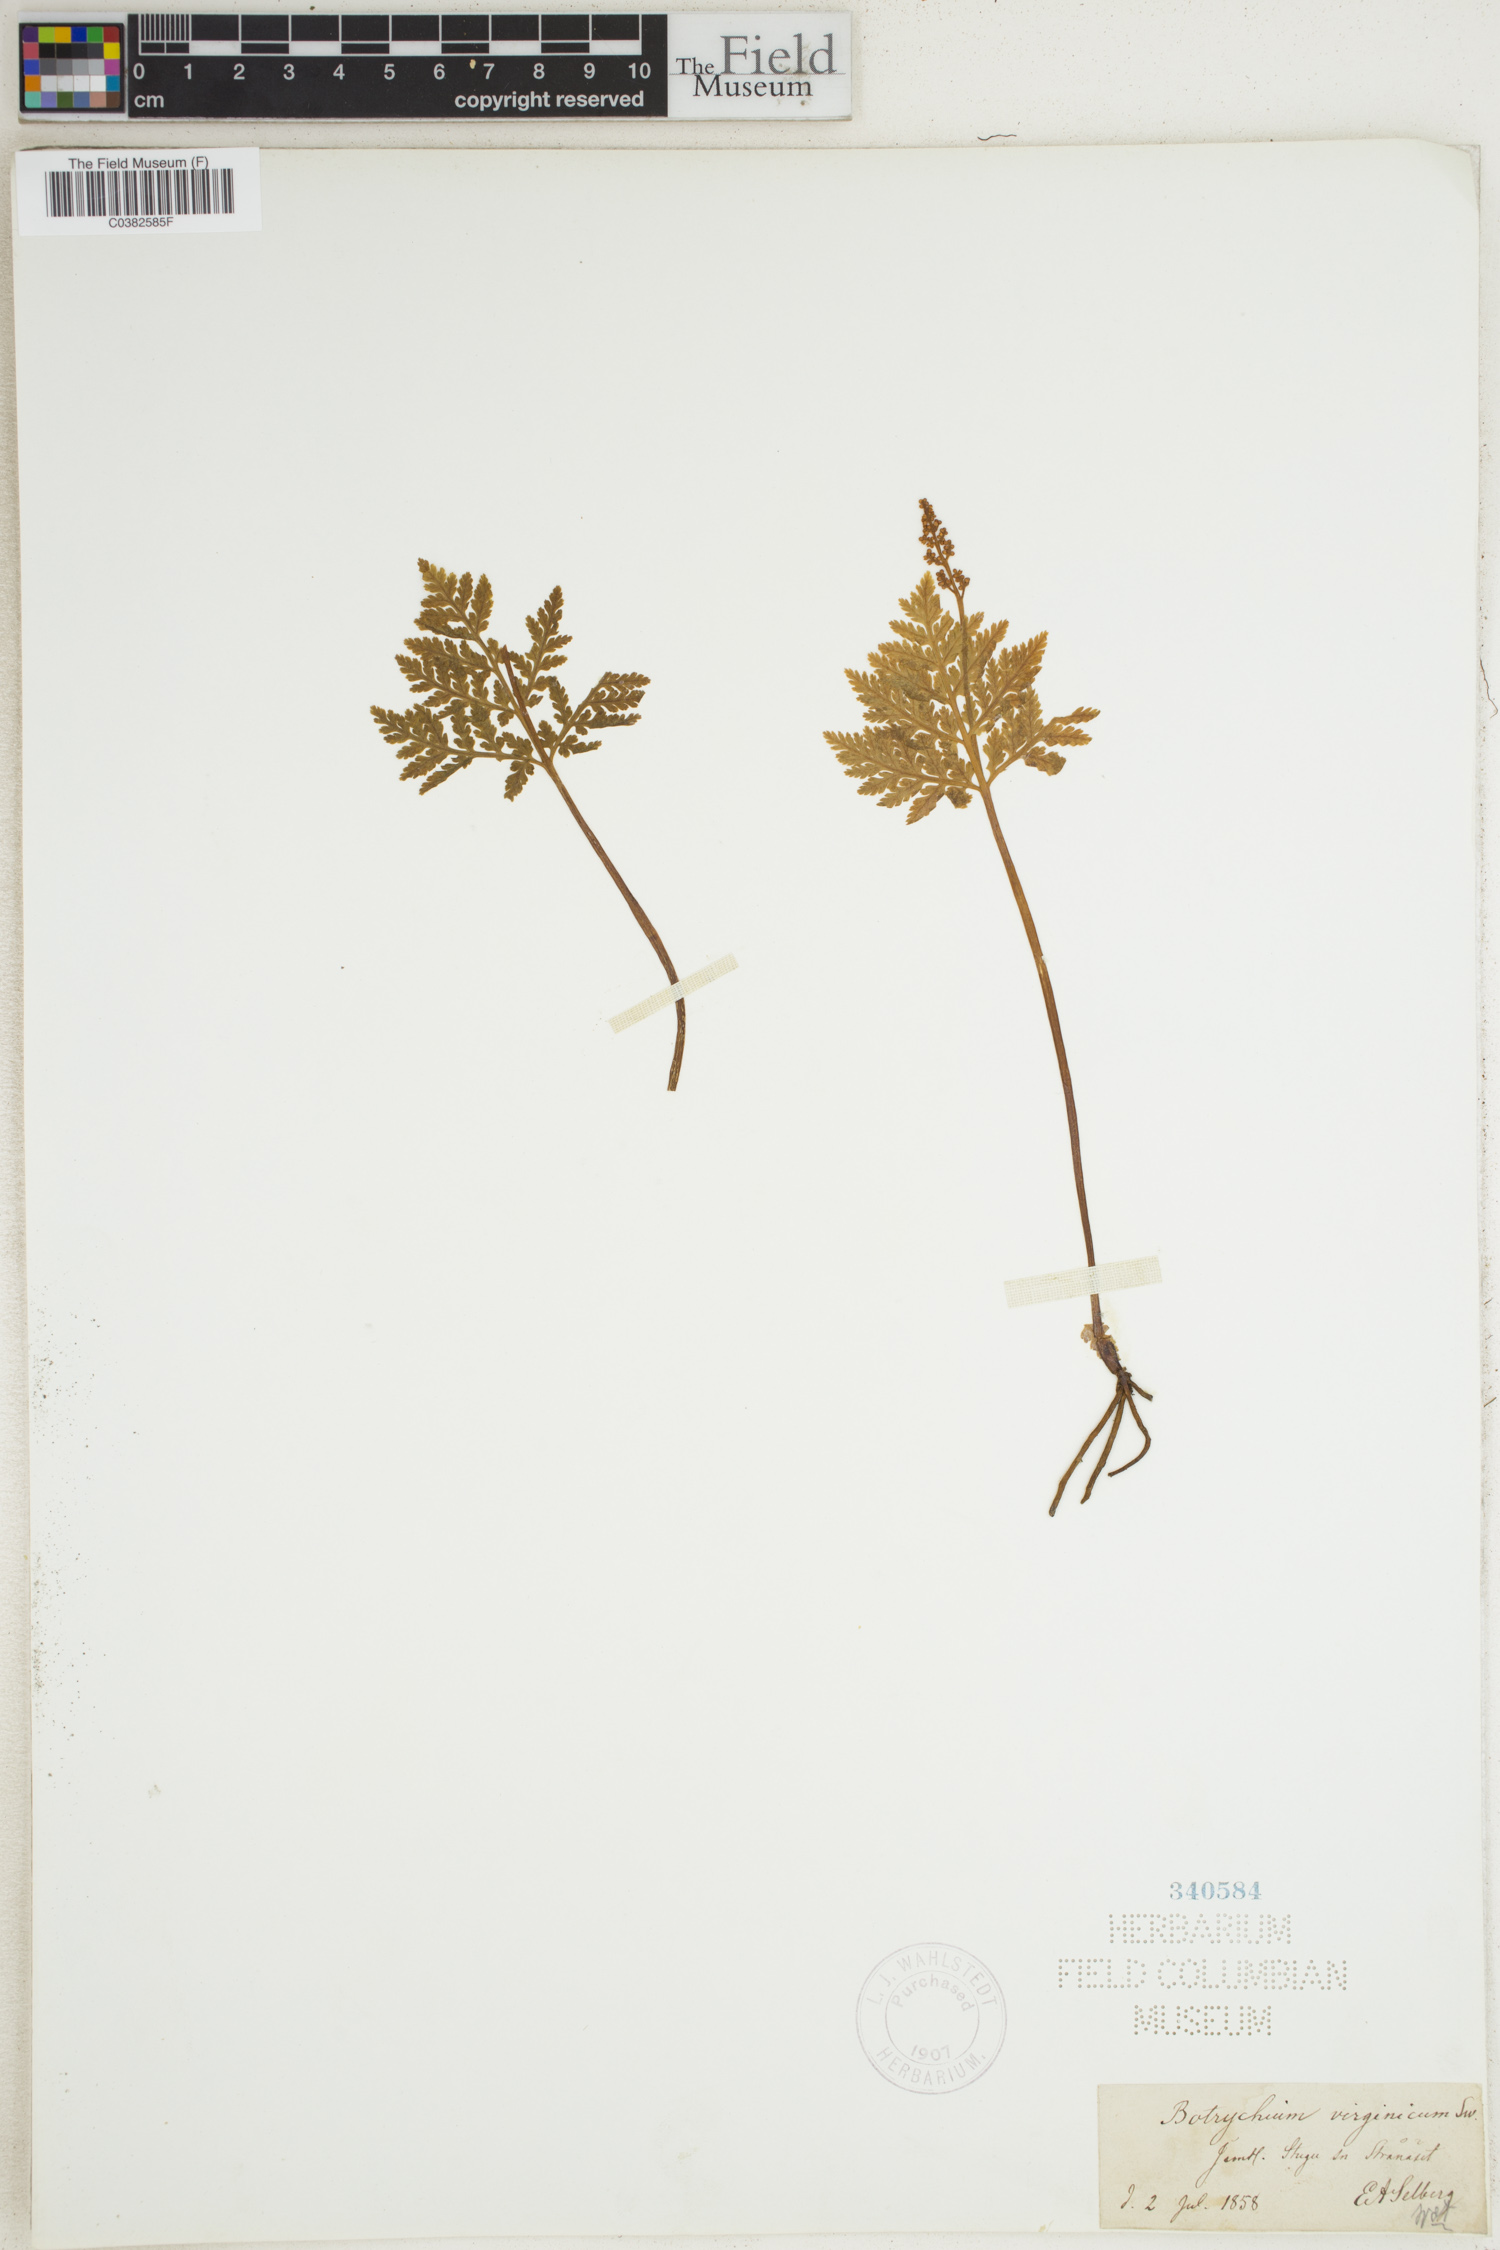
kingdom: Plantae
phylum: Tracheophyta
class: Polypodiopsida
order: Ophioglossales
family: Ophioglossaceae
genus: Botrypus
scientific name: Botrypus virginianus
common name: Common grapefern
